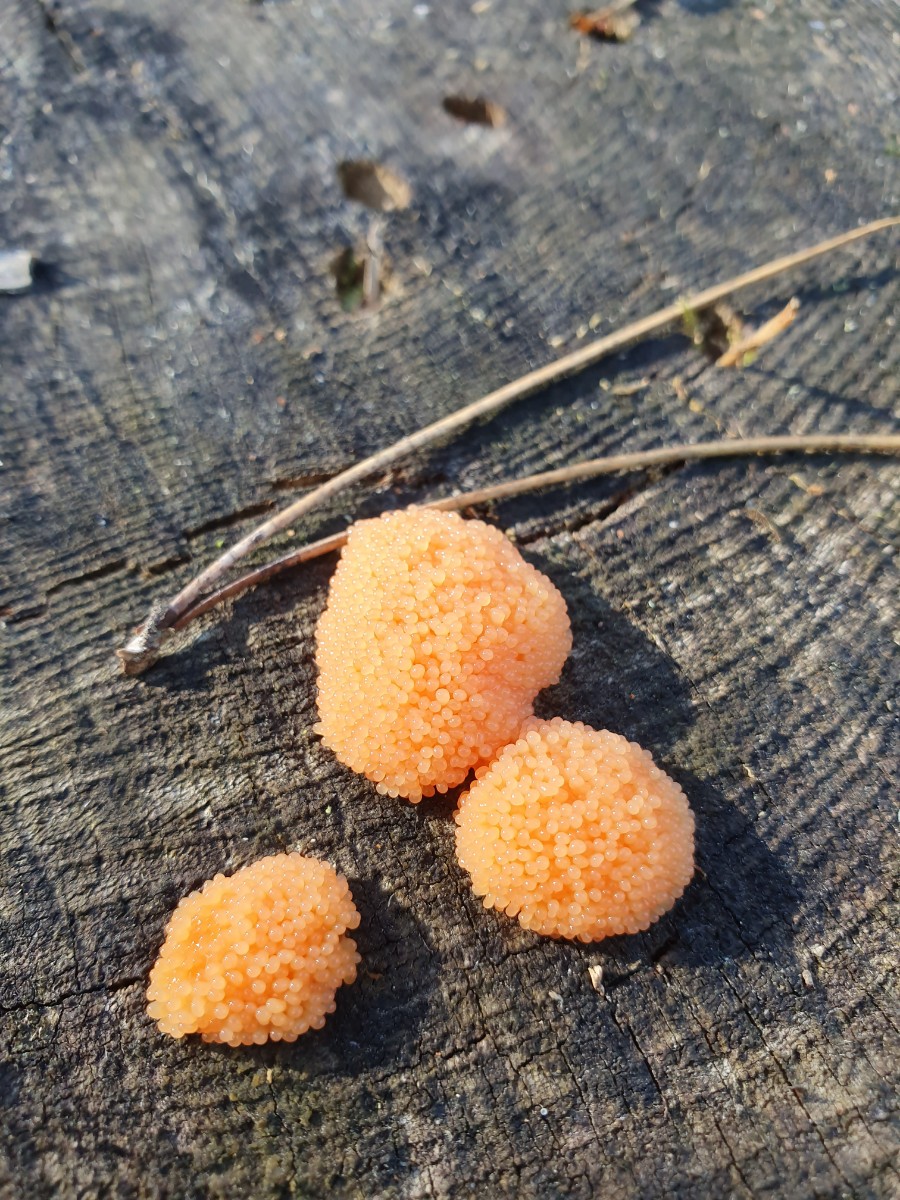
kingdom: Protozoa
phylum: Mycetozoa
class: Myxomycetes
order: Cribrariales
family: Tubiferaceae
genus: Tubifera
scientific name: Tubifera ferruginosa
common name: kanel-støvrør
